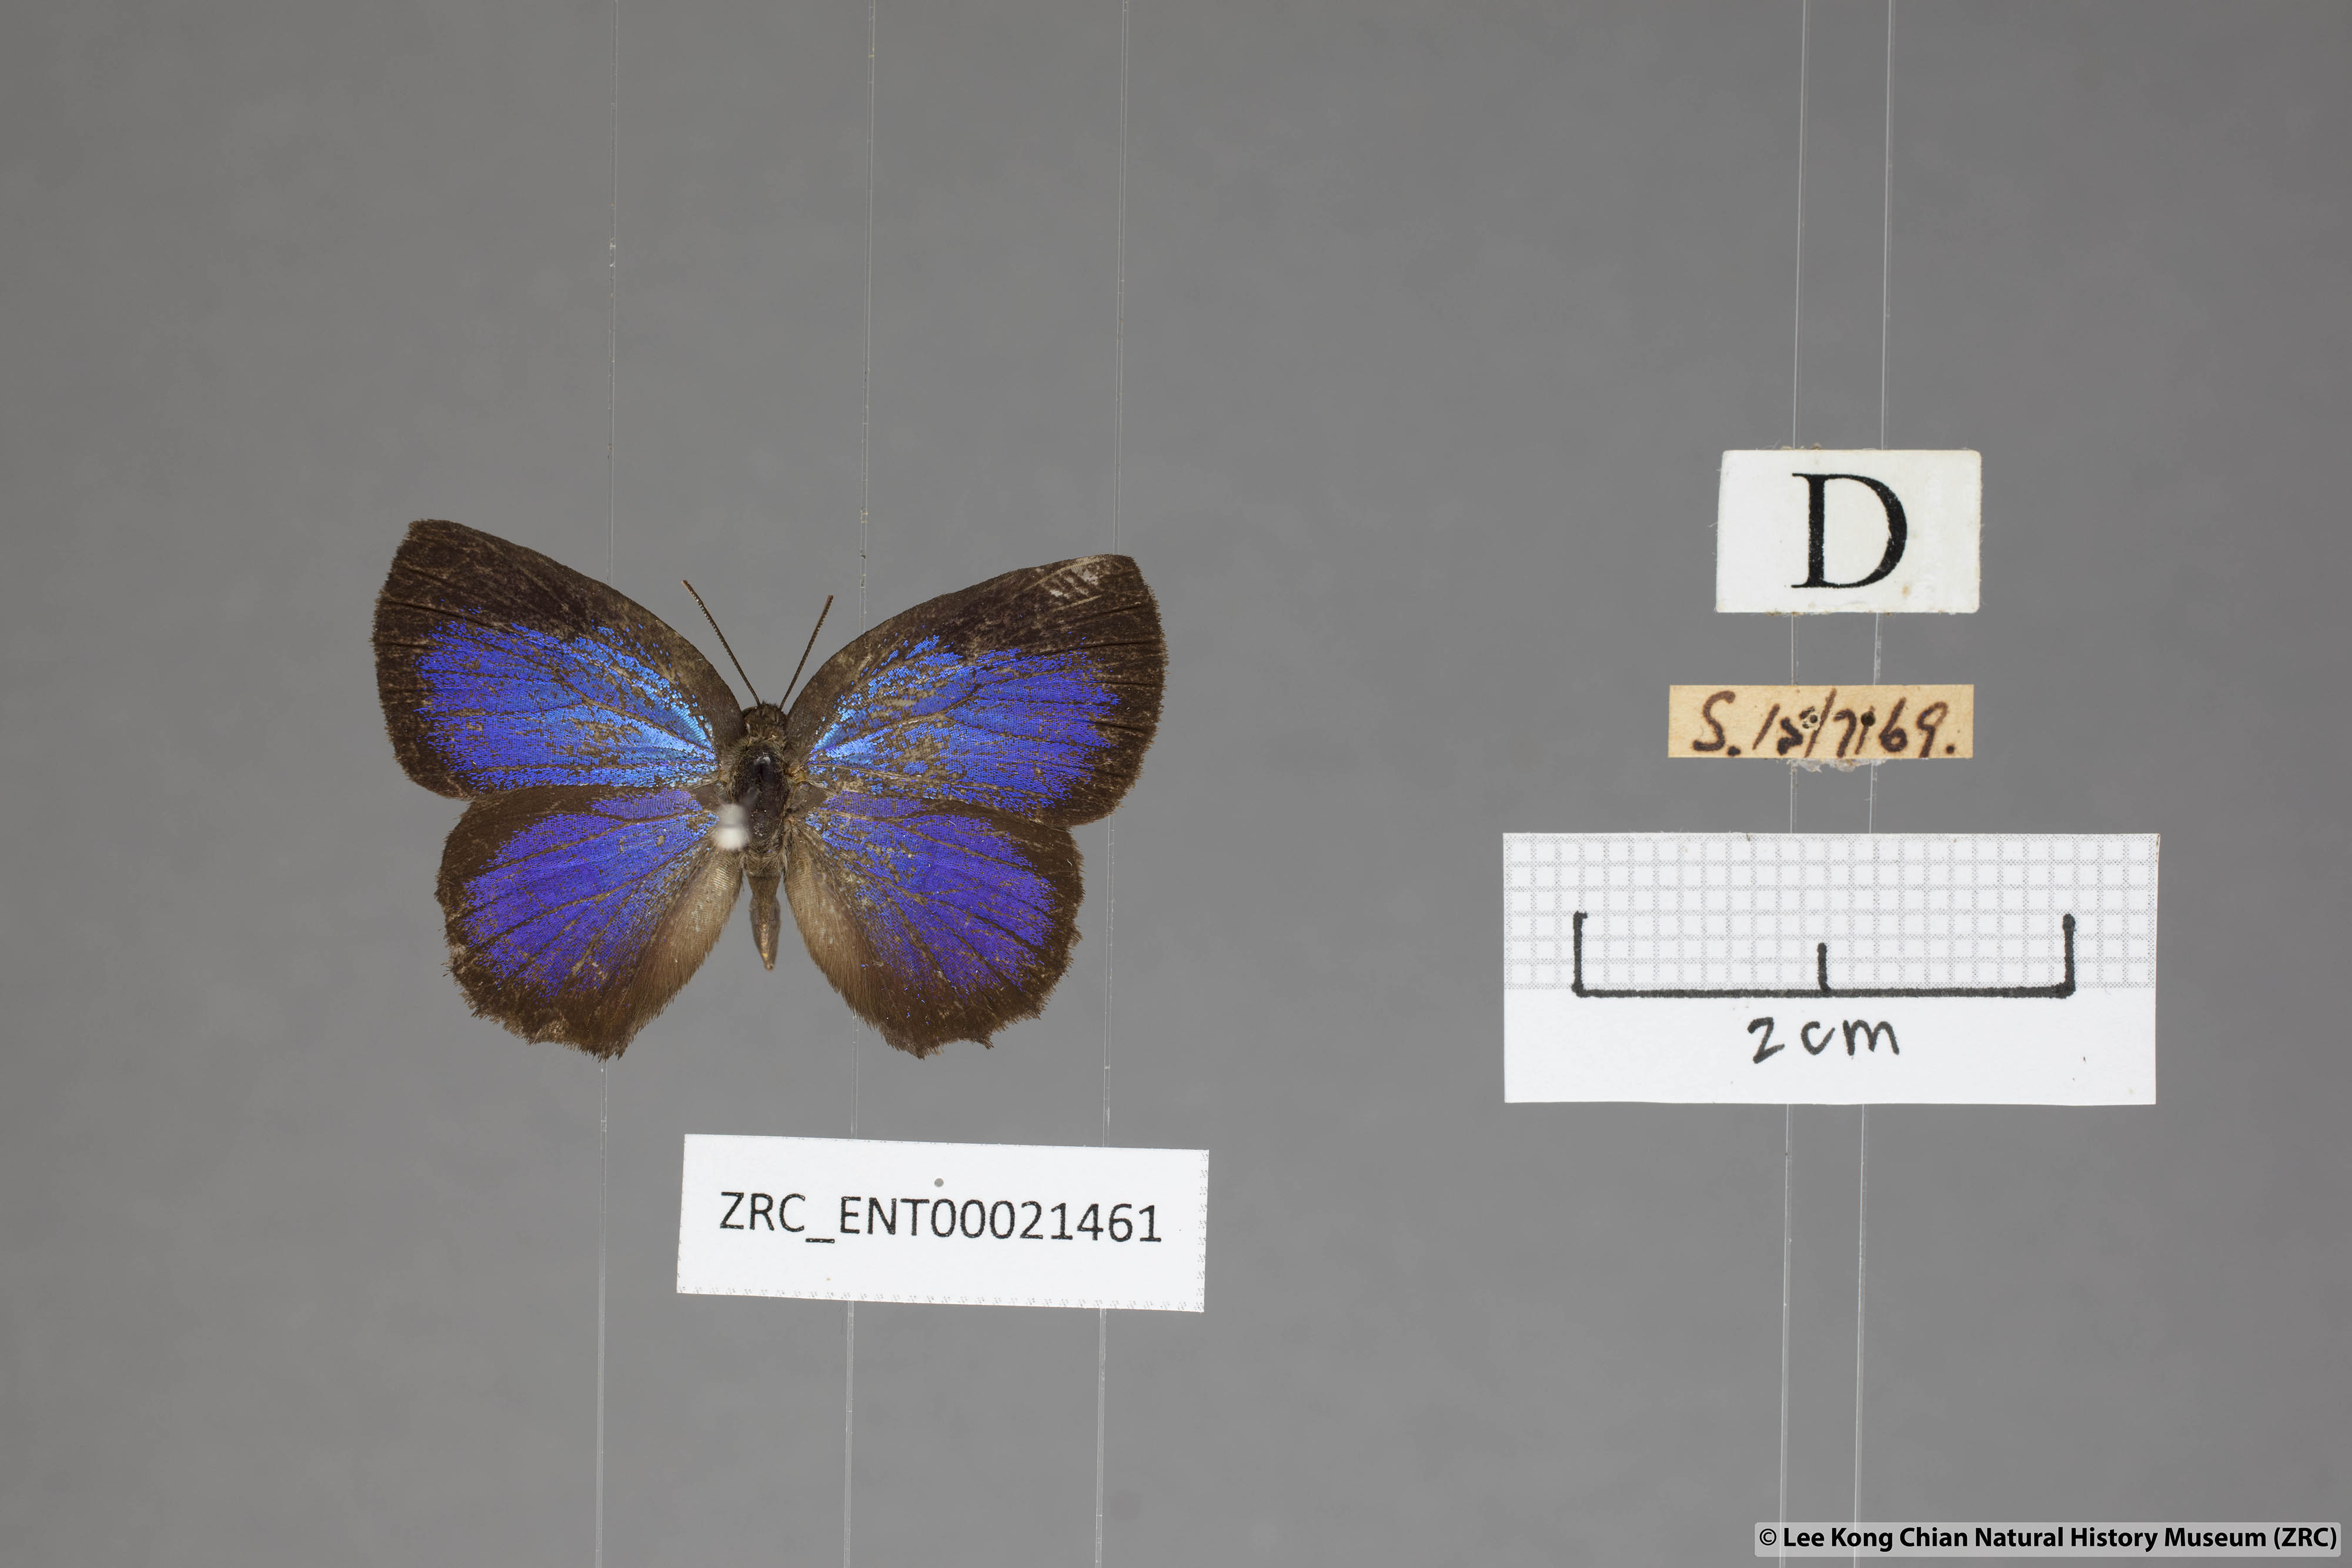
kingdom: Animalia
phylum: Arthropoda
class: Insecta
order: Lepidoptera
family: Lycaenidae
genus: Flos
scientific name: Flos
